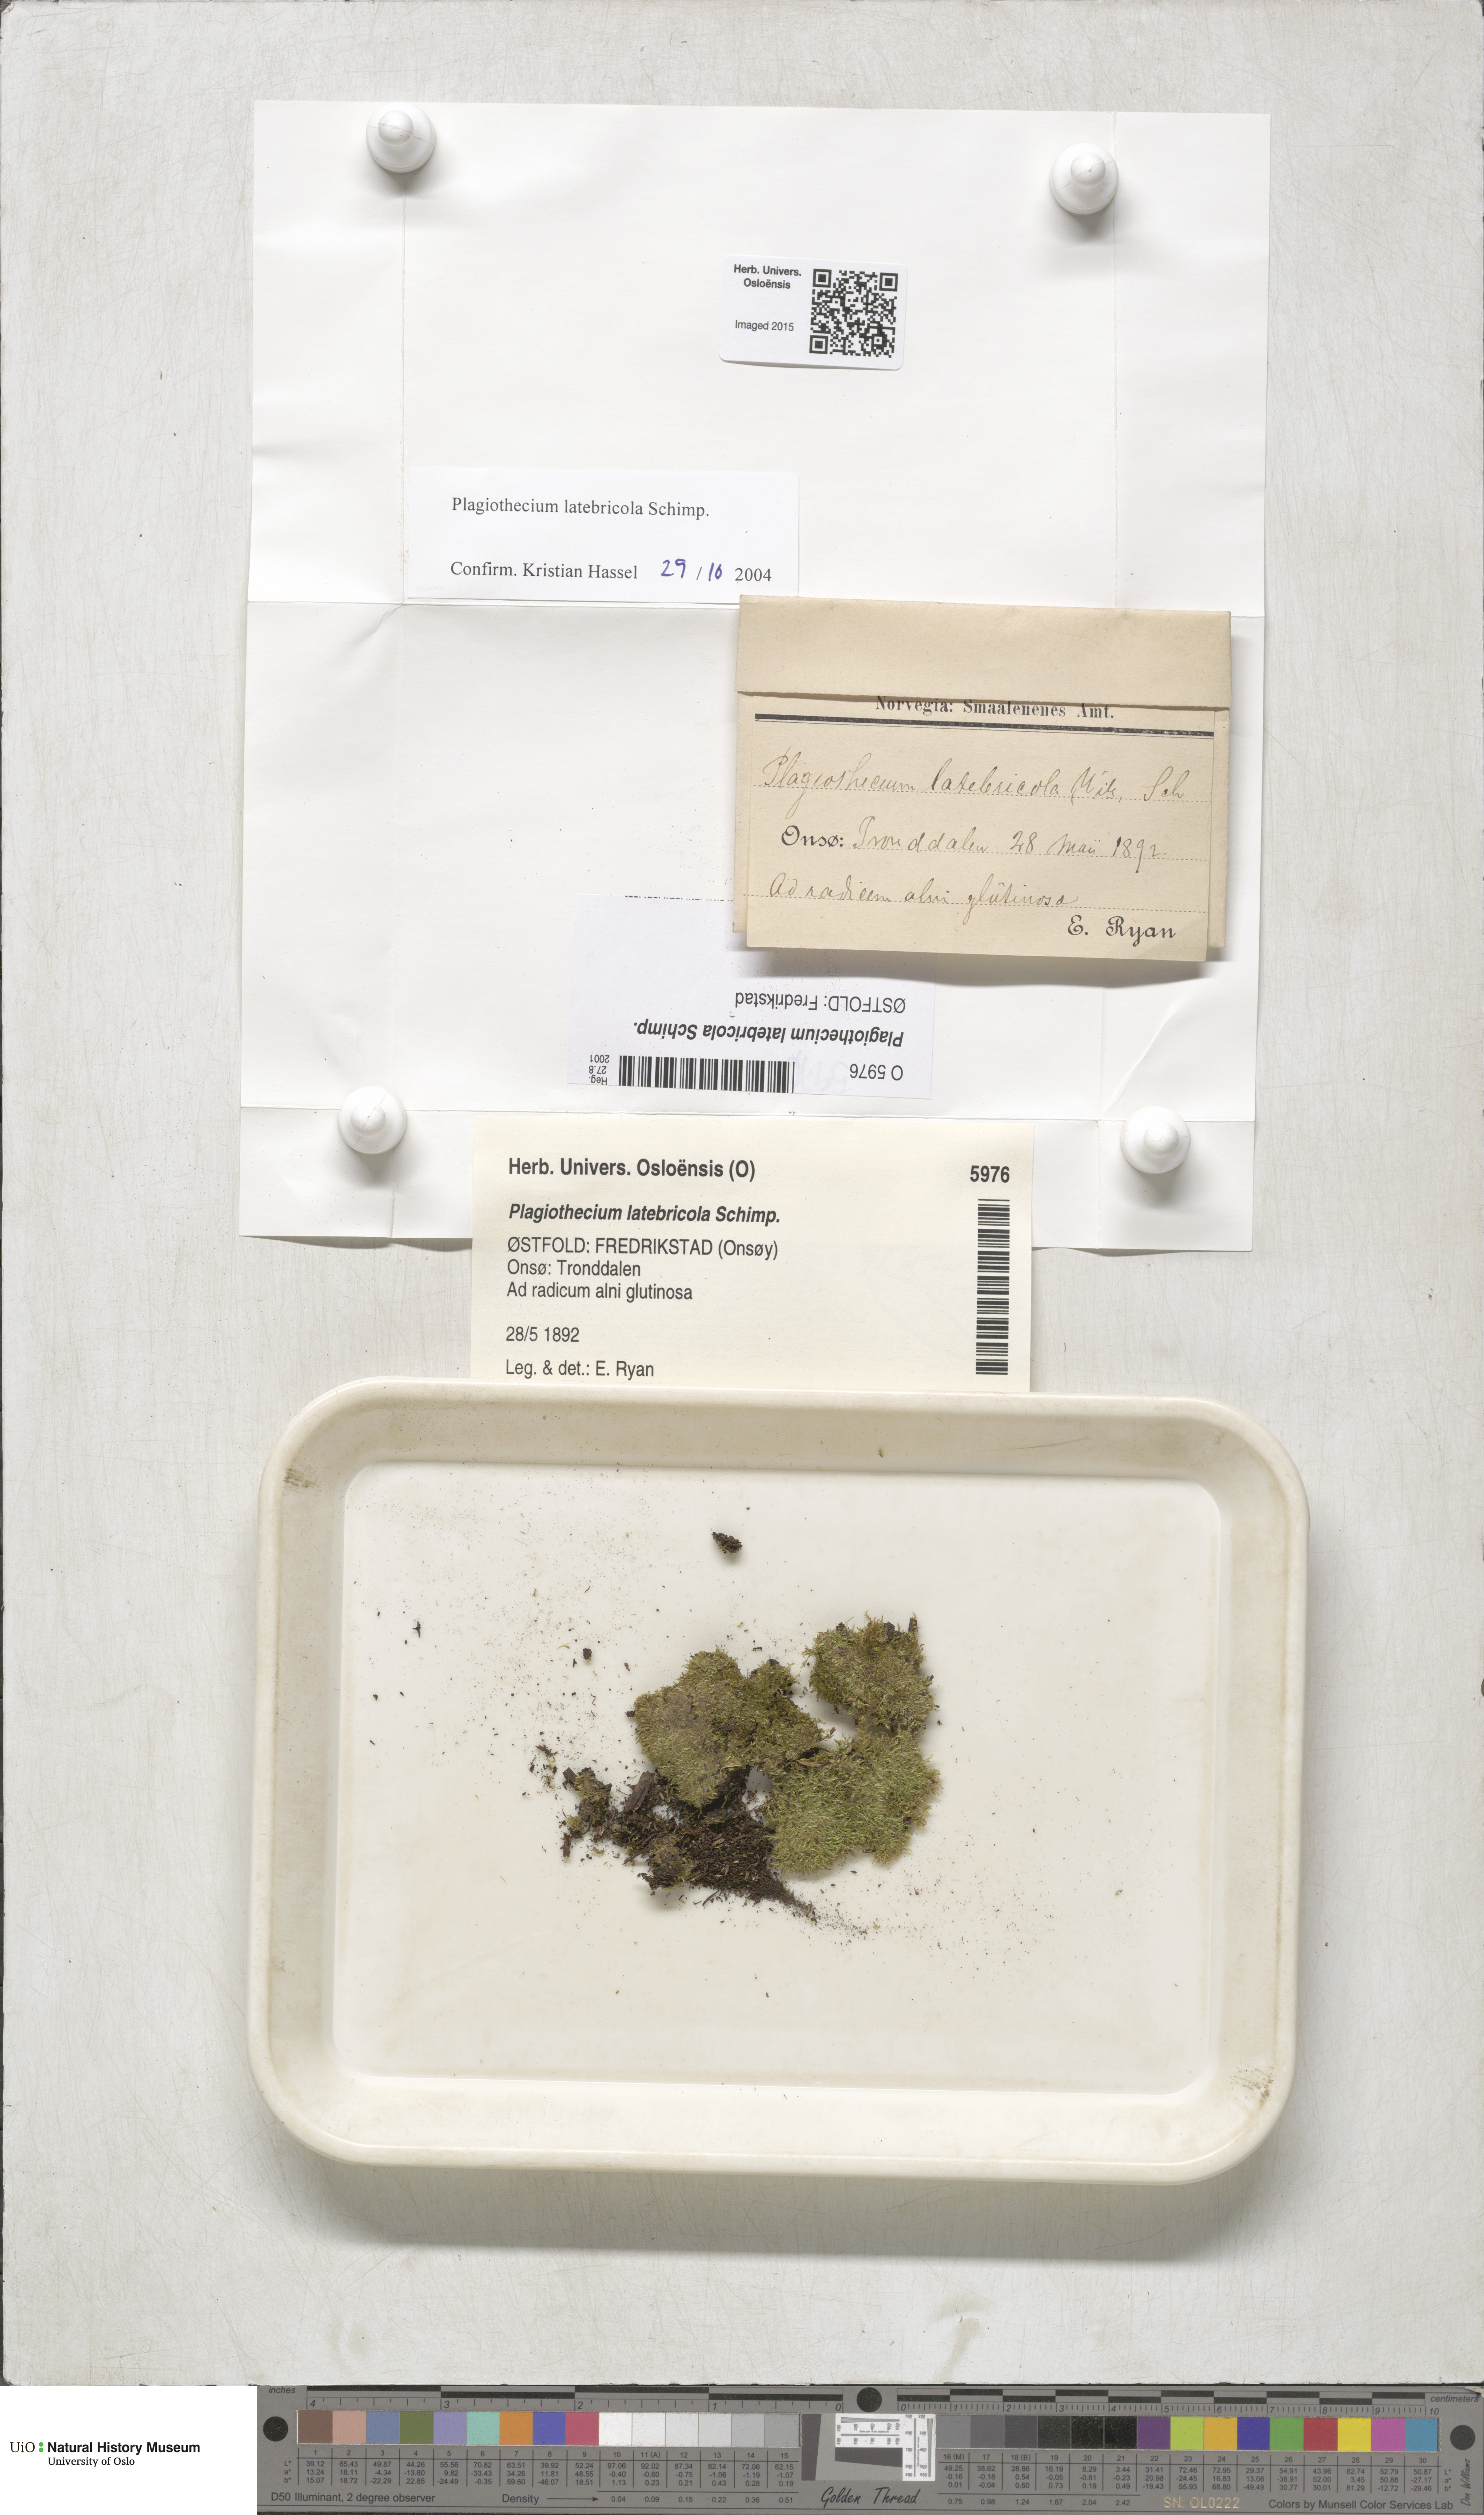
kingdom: Plantae
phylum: Bryophyta
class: Bryopsida
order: Hypnales
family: Plagiotheciaceae
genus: Plagiothecium
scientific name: Plagiothecium latebricola
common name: Alder silk moss
